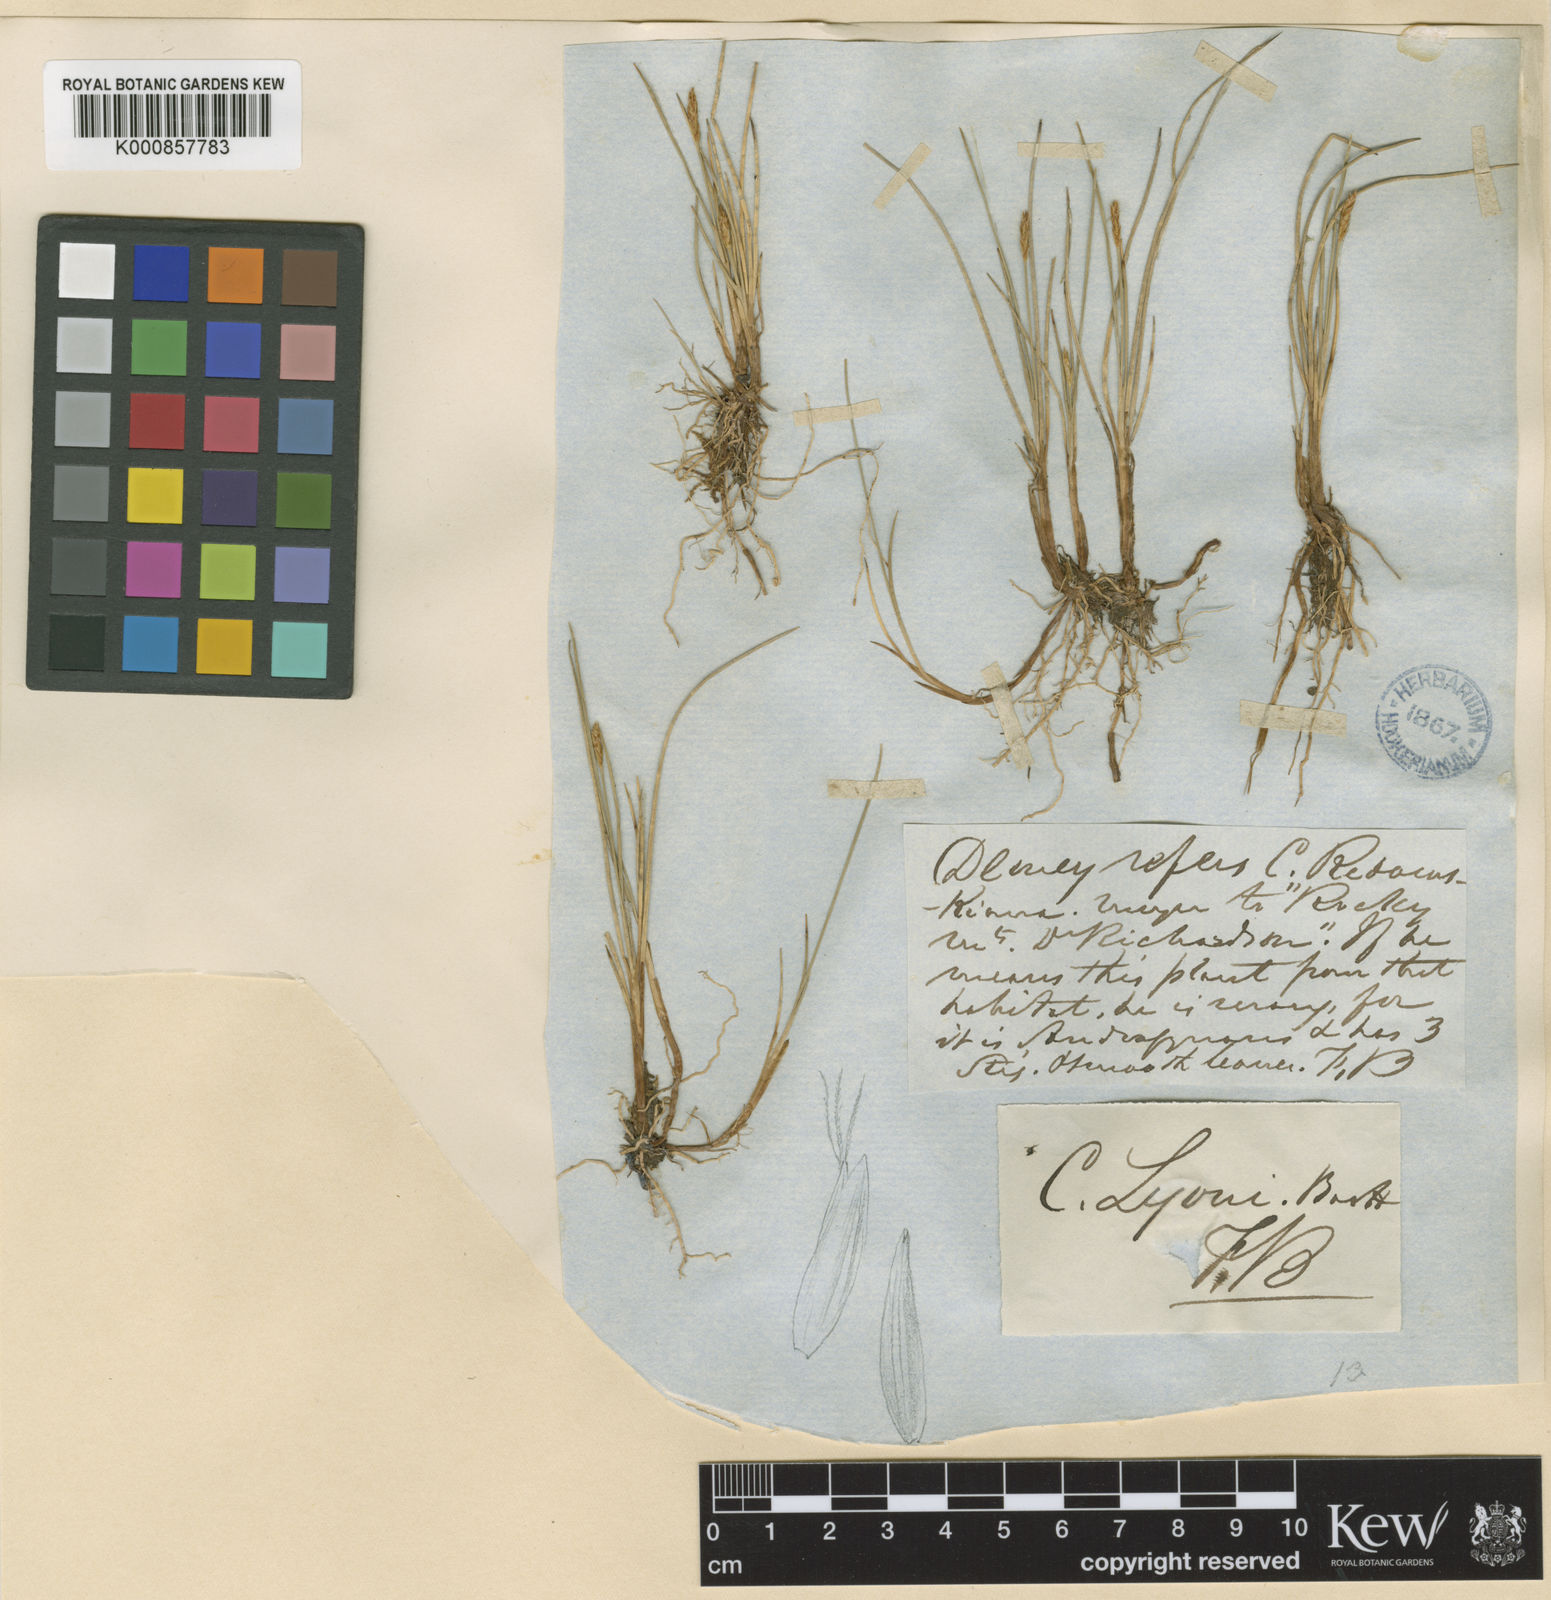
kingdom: Plantae
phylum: Tracheophyta
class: Liliopsida
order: Poales
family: Cyperaceae
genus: Carex
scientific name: Carex microglochin
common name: Bristle sedge
